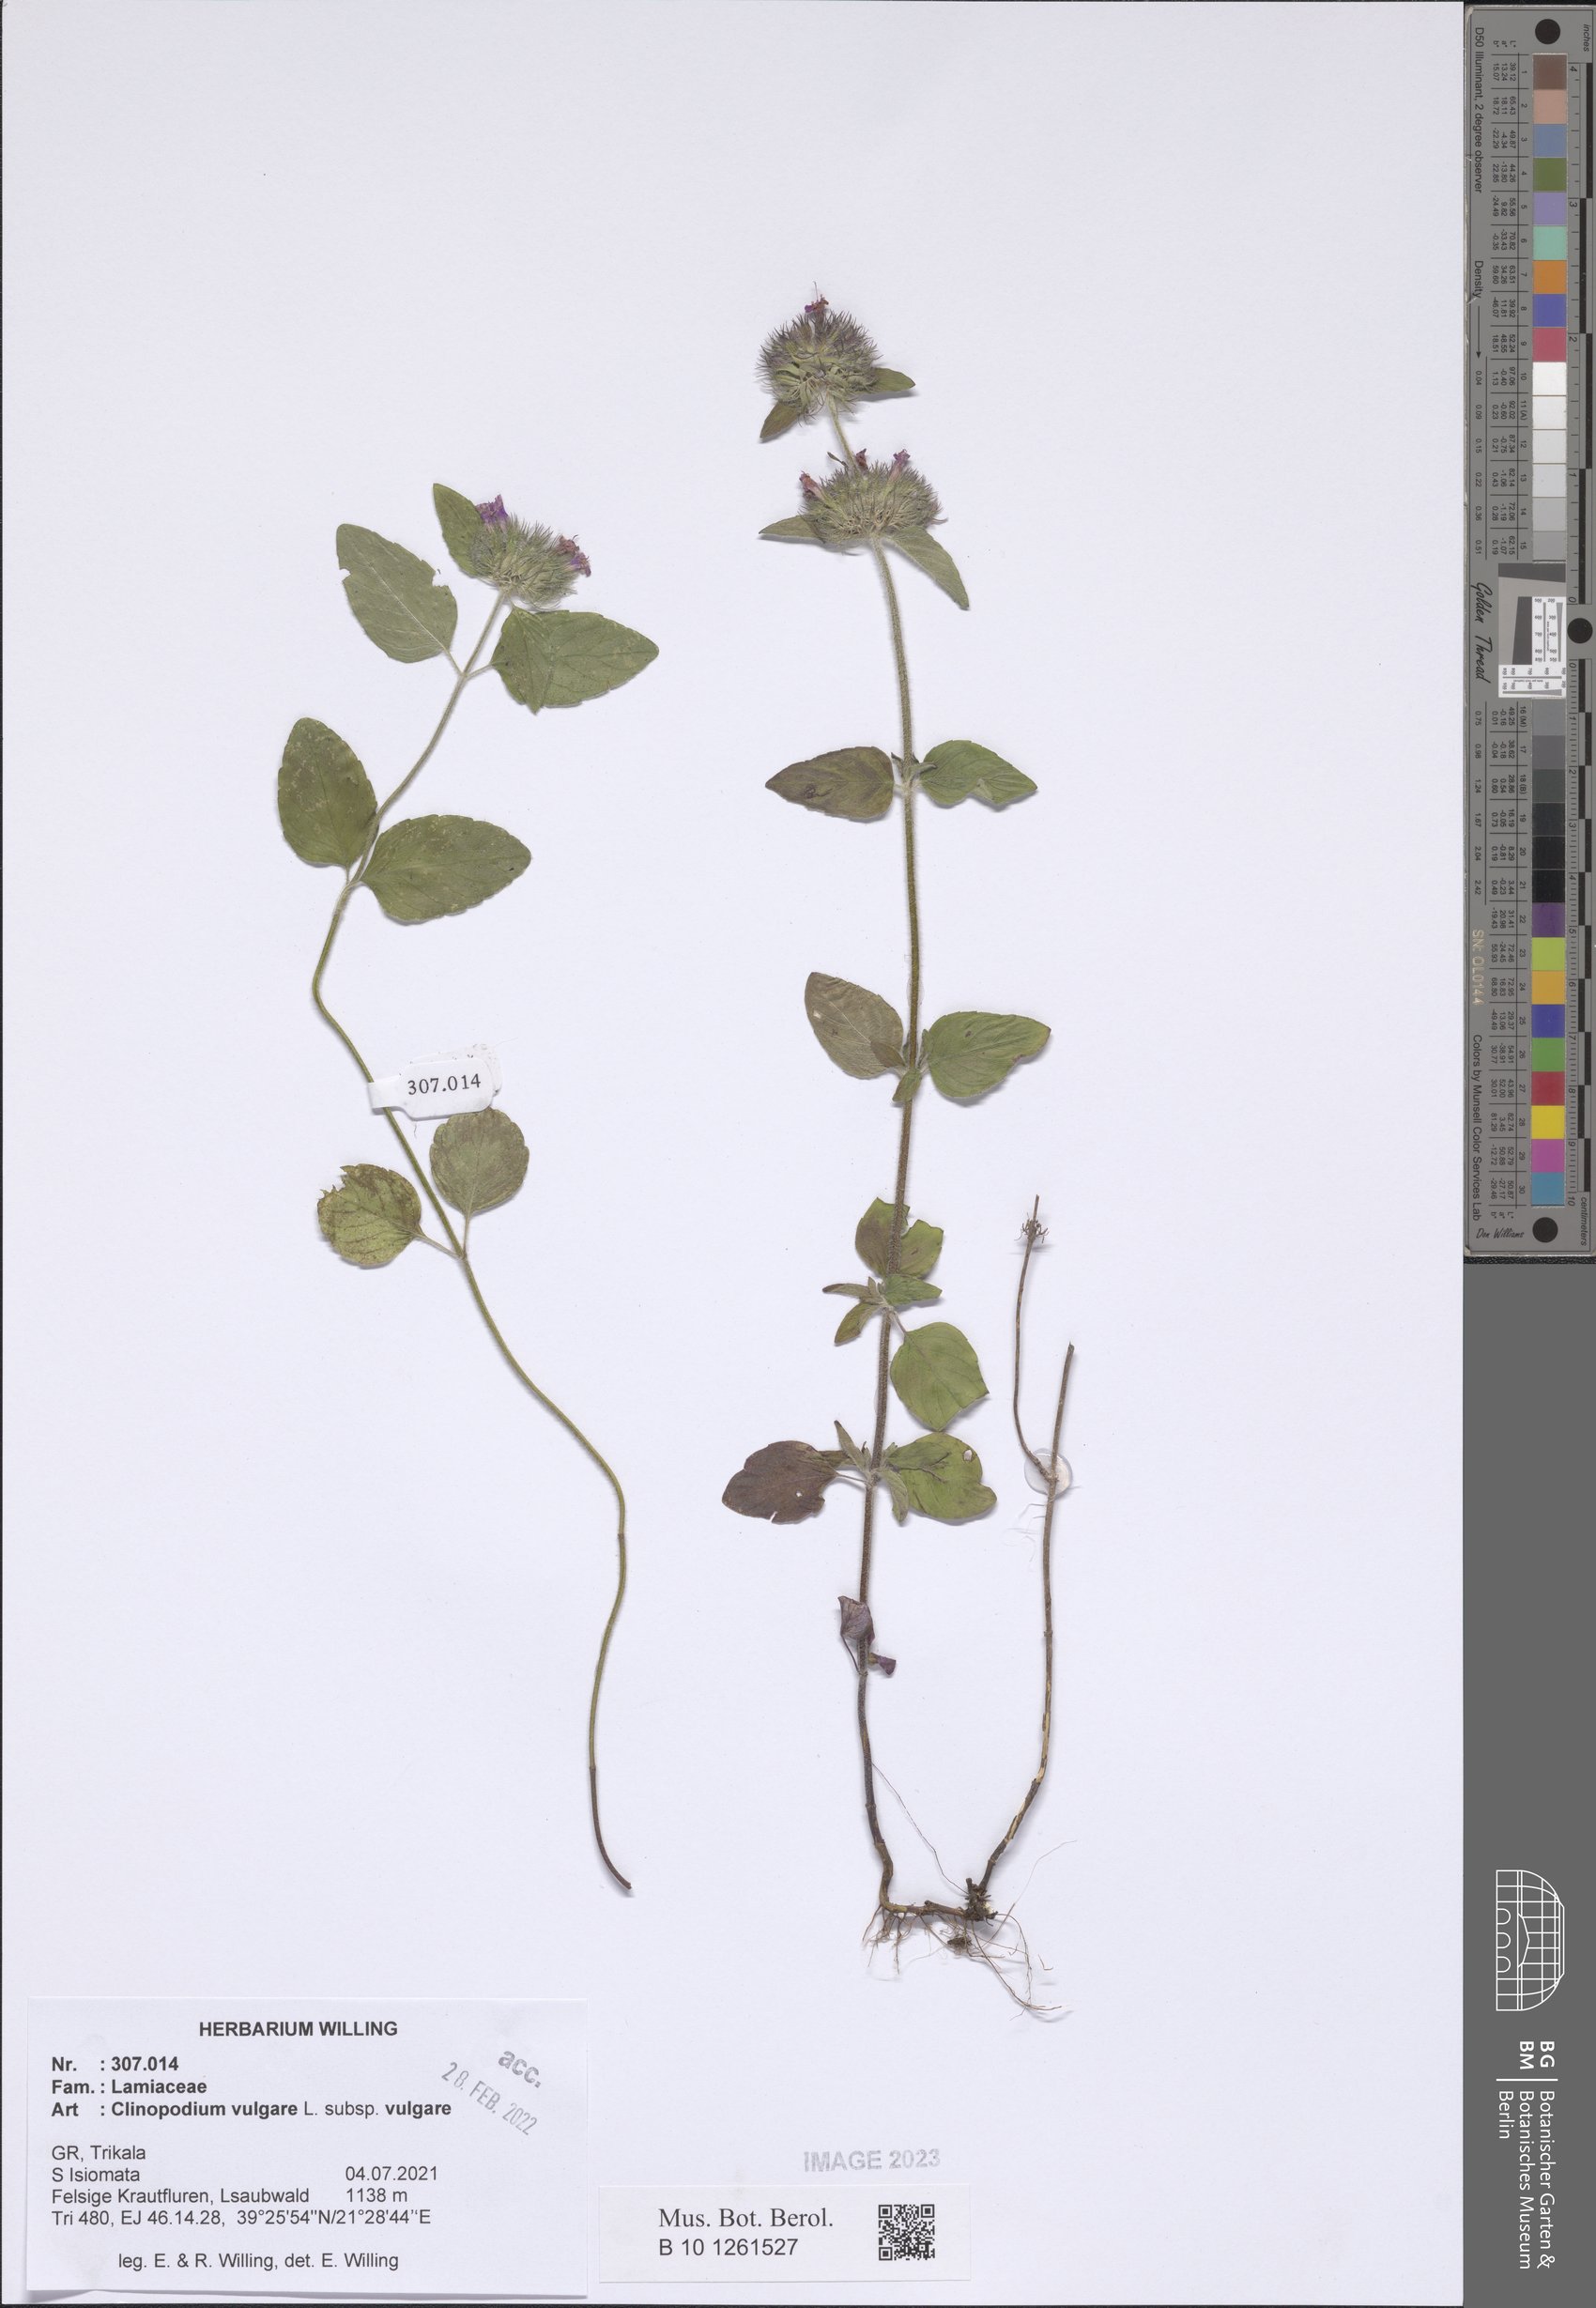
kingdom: Plantae
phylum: Tracheophyta
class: Magnoliopsida
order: Lamiales
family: Lamiaceae
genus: Clinopodium
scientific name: Clinopodium vulgare
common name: Wild basil
